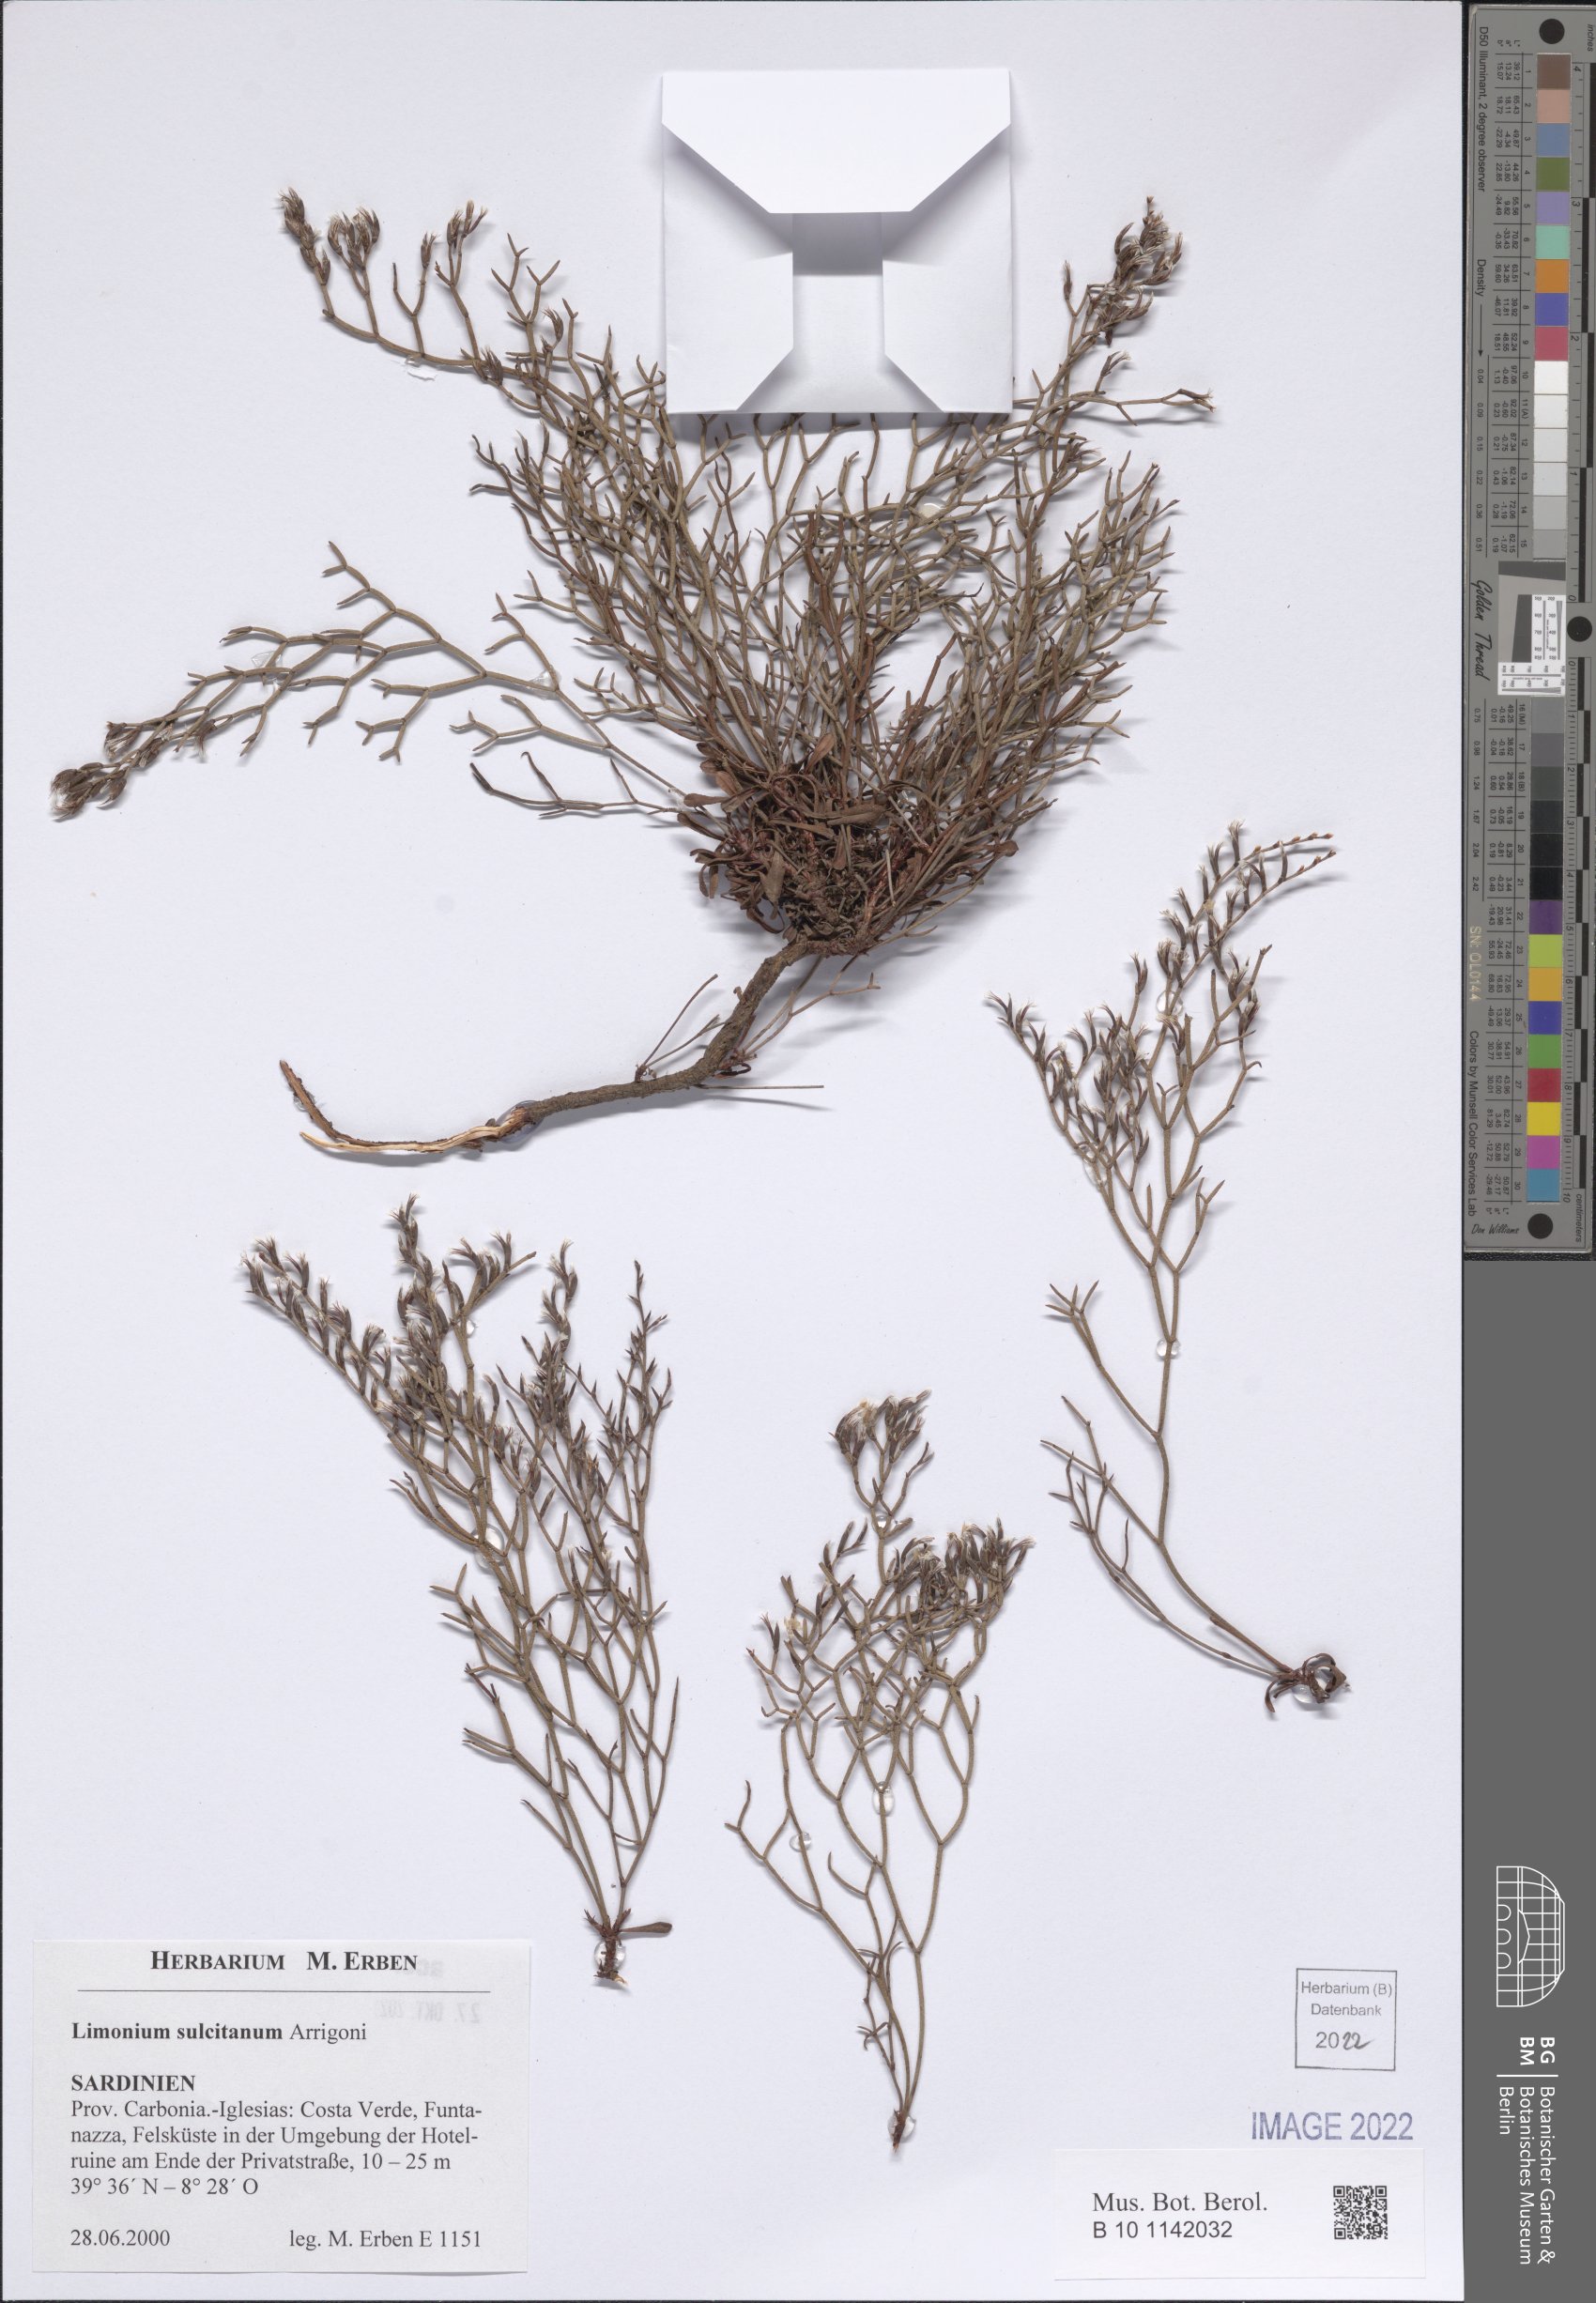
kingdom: Plantae
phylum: Tracheophyta
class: Magnoliopsida
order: Caryophyllales
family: Plumbaginaceae
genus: Limonium
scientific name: Limonium sulcitanum
